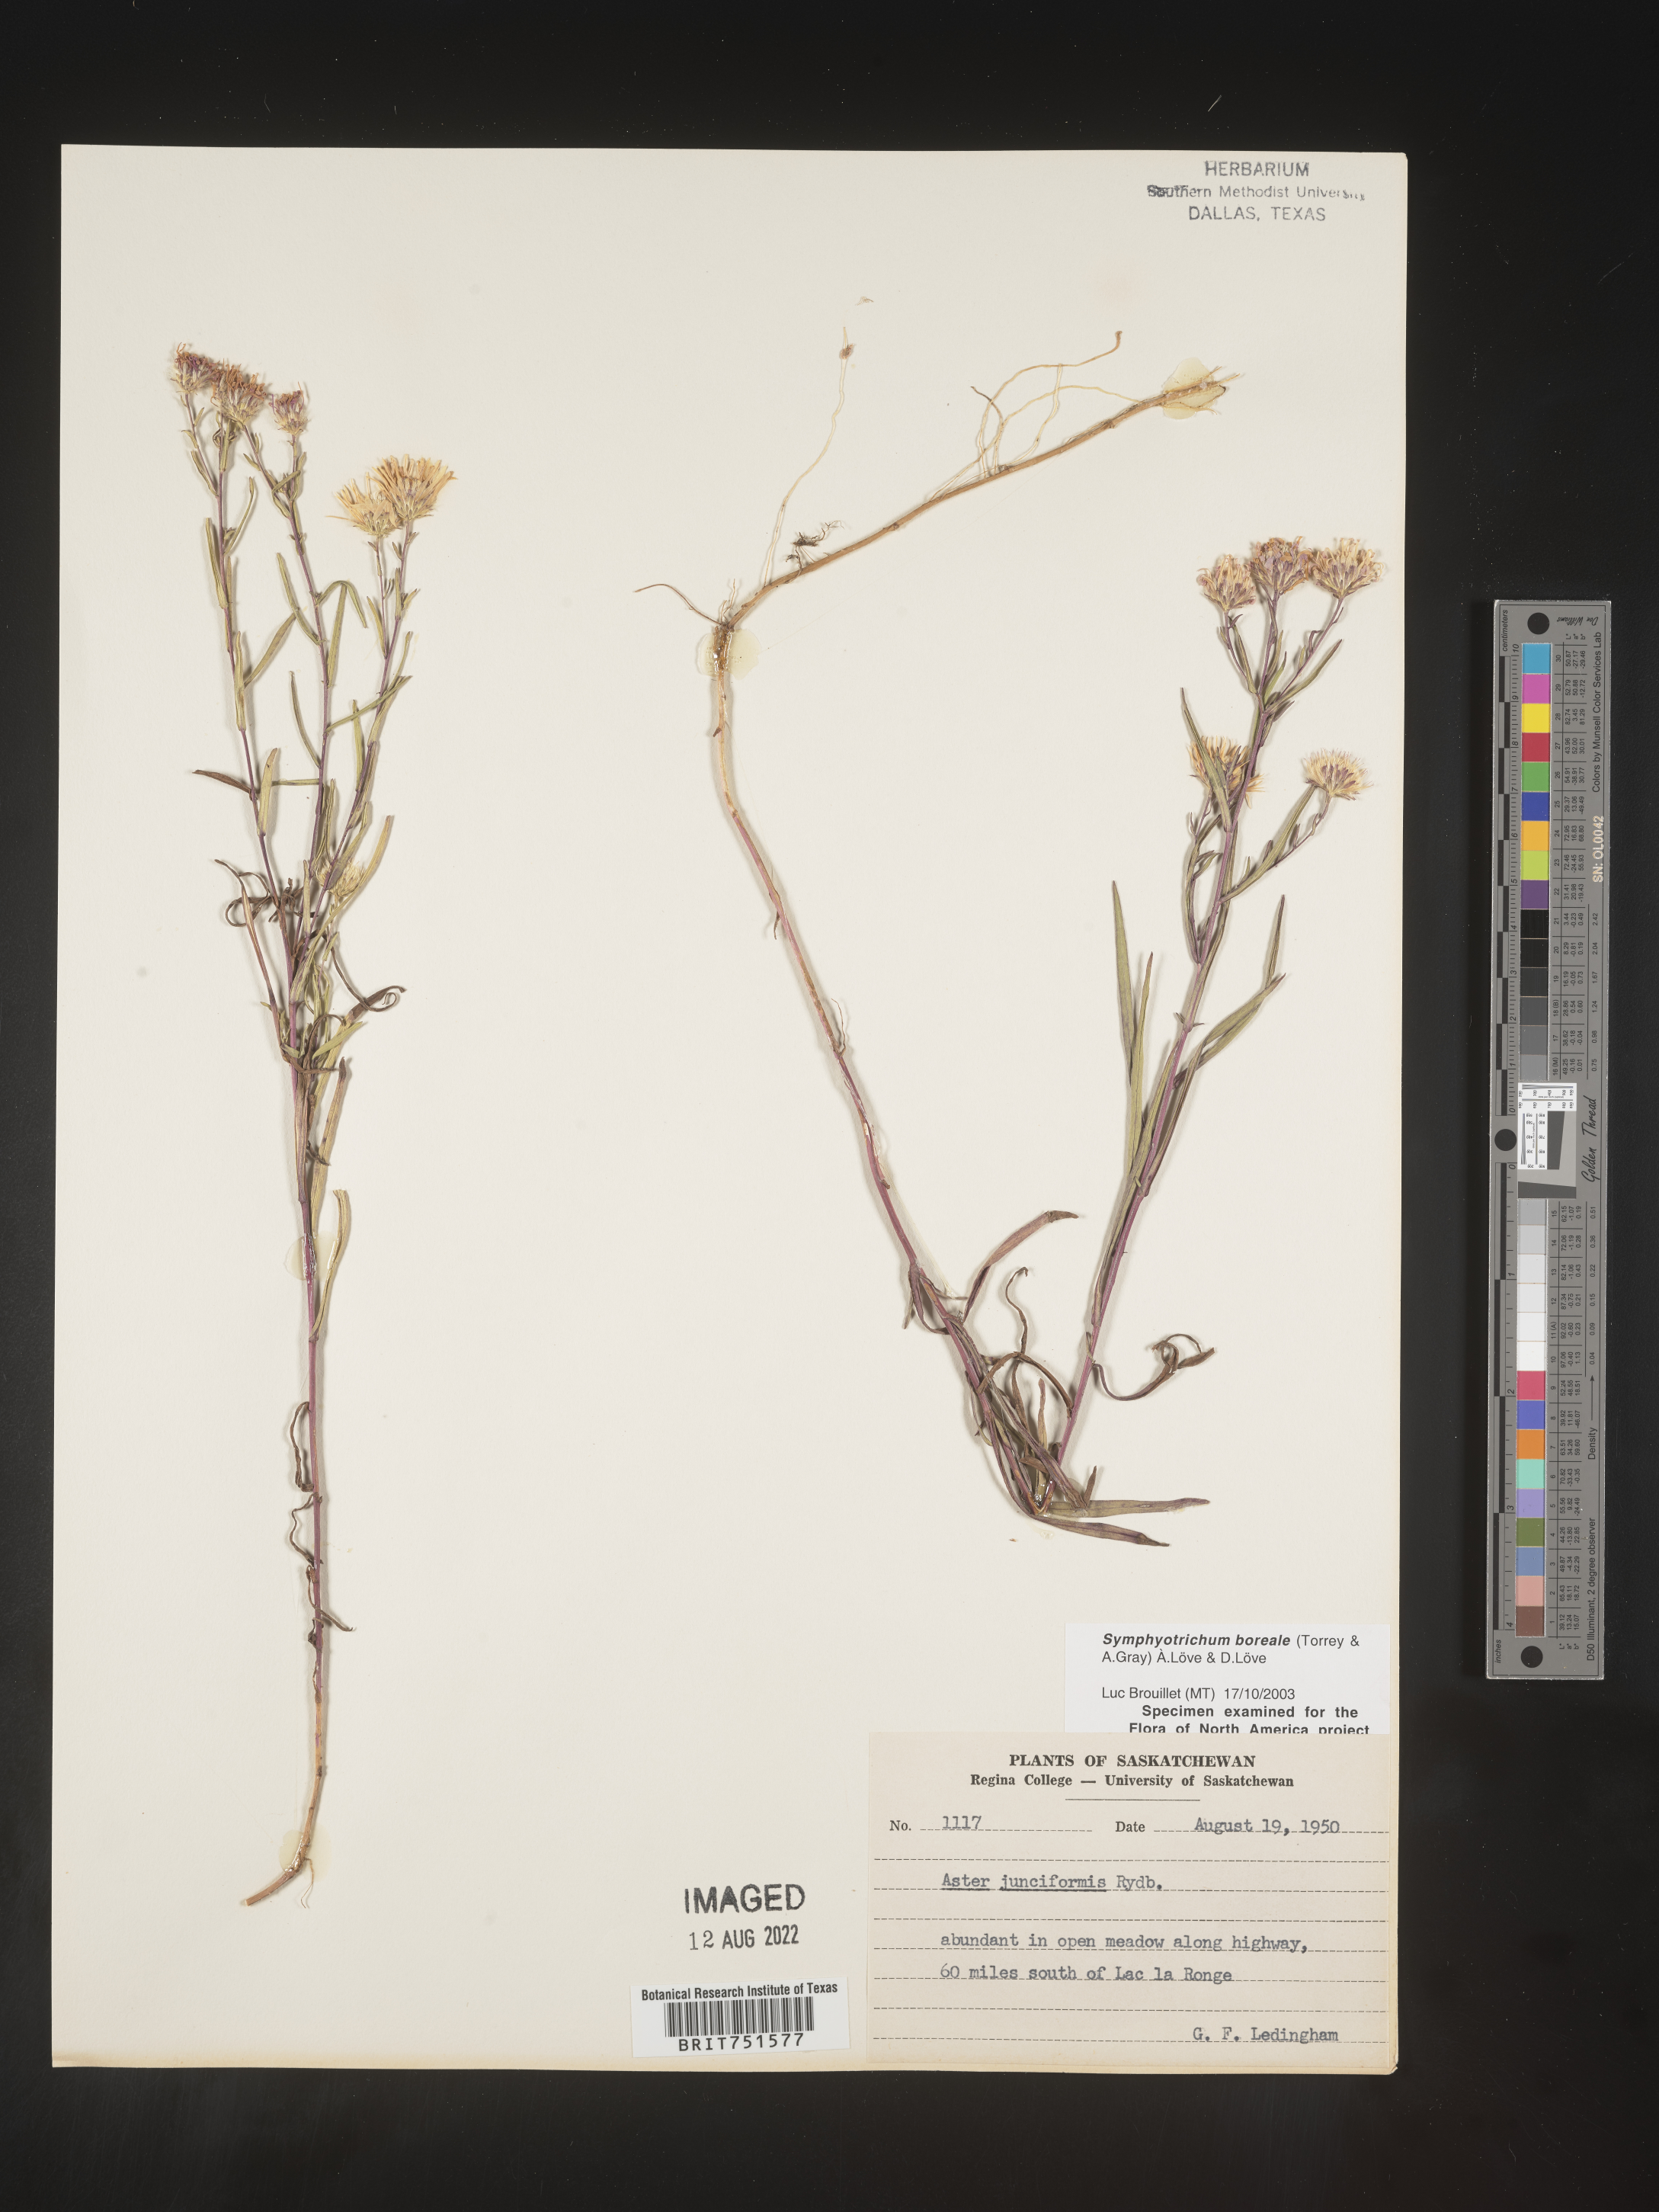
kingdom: Plantae
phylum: Tracheophyta
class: Magnoliopsida
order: Asterales
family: Asteraceae
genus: Symphyotrichum
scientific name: Symphyotrichum boreale
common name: Northern bog aster
